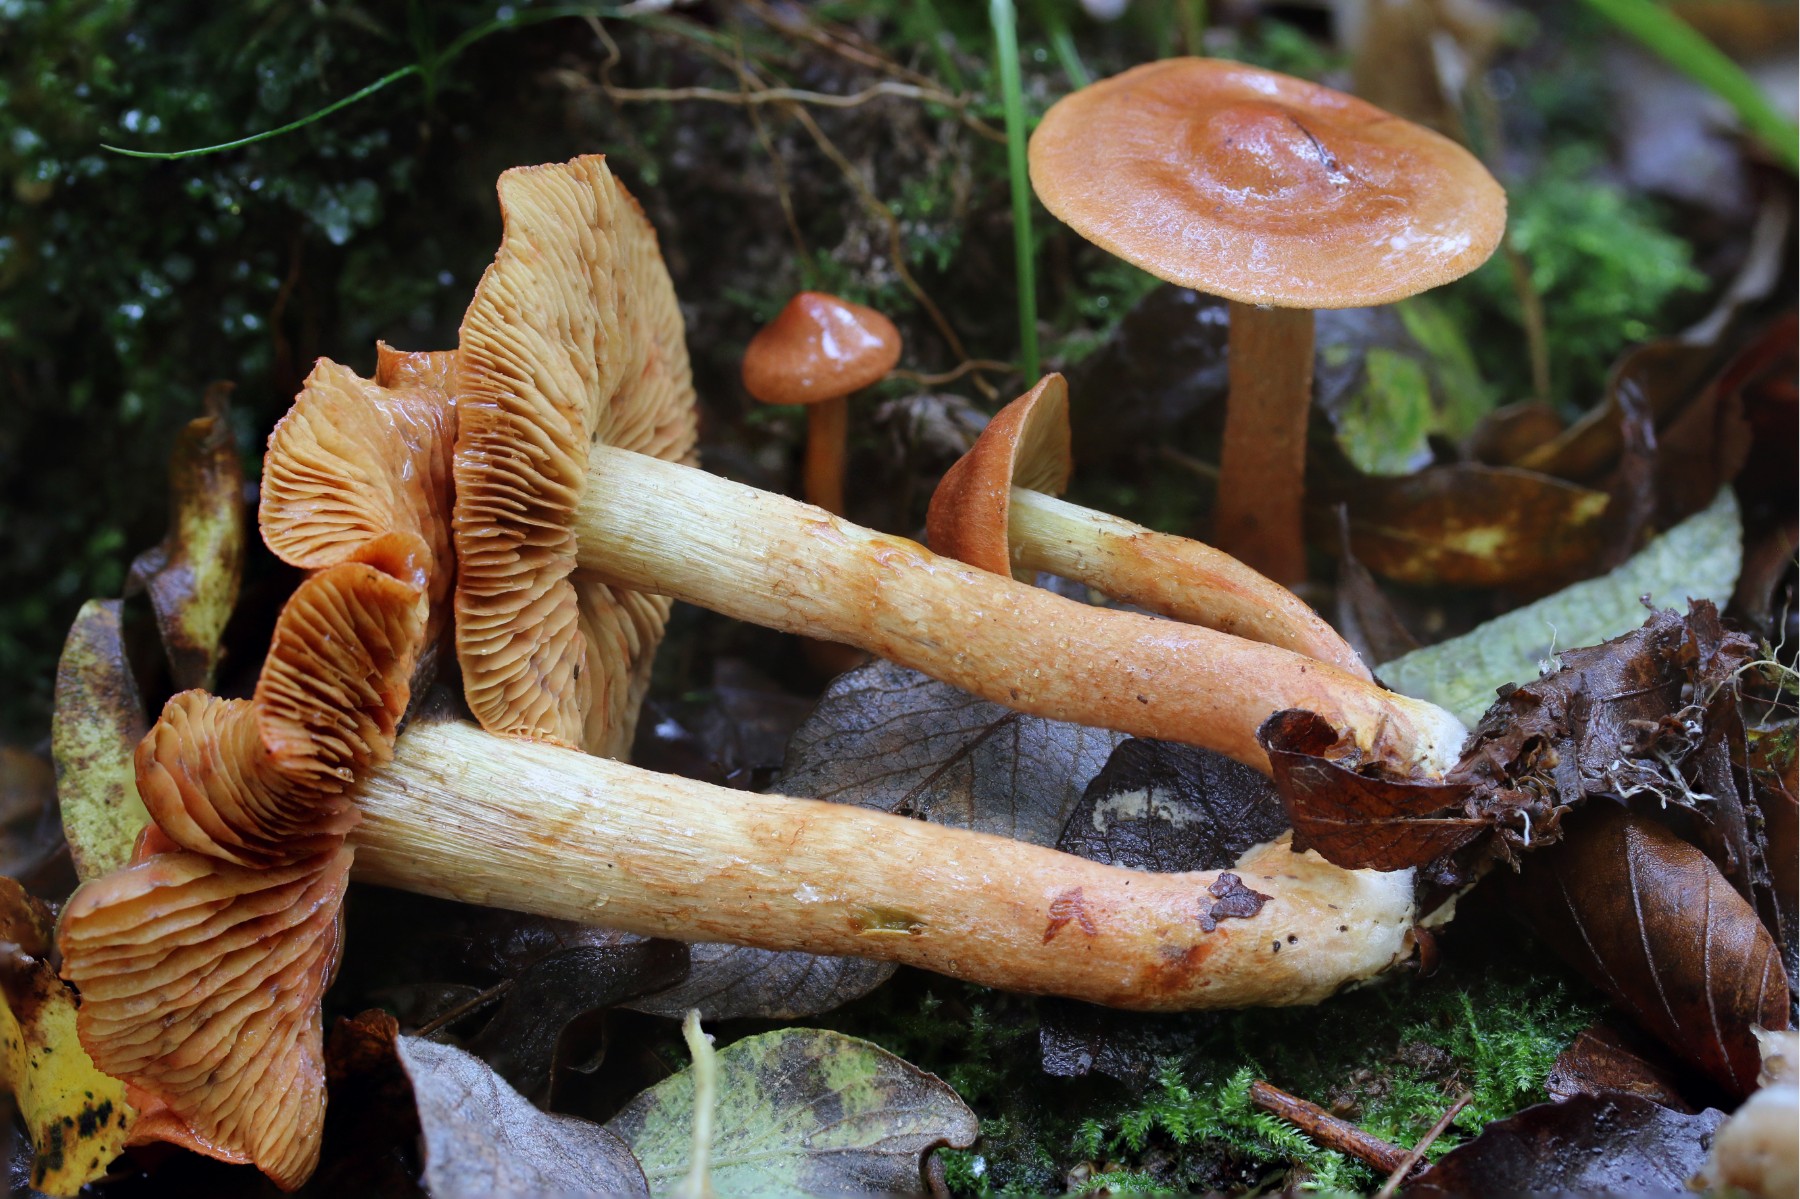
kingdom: Fungi
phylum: Basidiomycota
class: Agaricomycetes
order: Agaricales
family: Cortinariaceae
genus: Cortinarius
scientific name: Cortinarius
